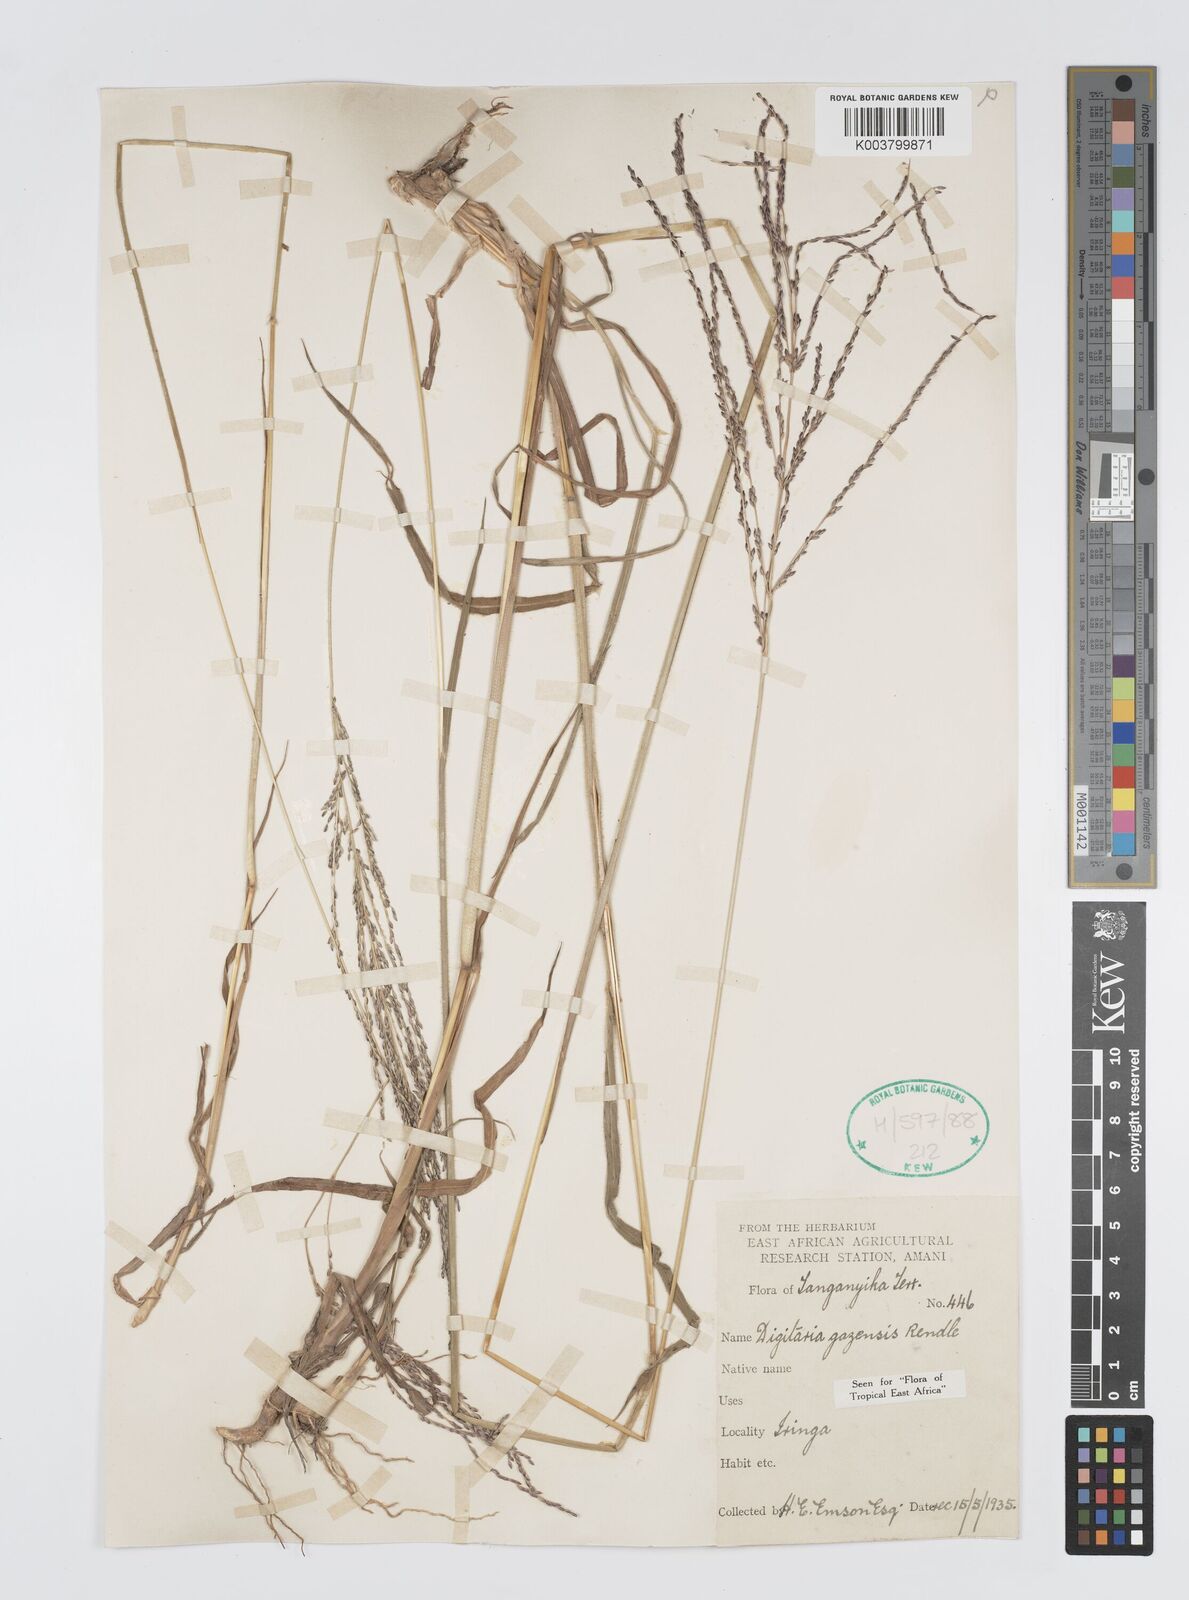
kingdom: Plantae
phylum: Tracheophyta
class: Liliopsida
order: Poales
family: Poaceae
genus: Digitaria
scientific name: Digitaria gazensis
